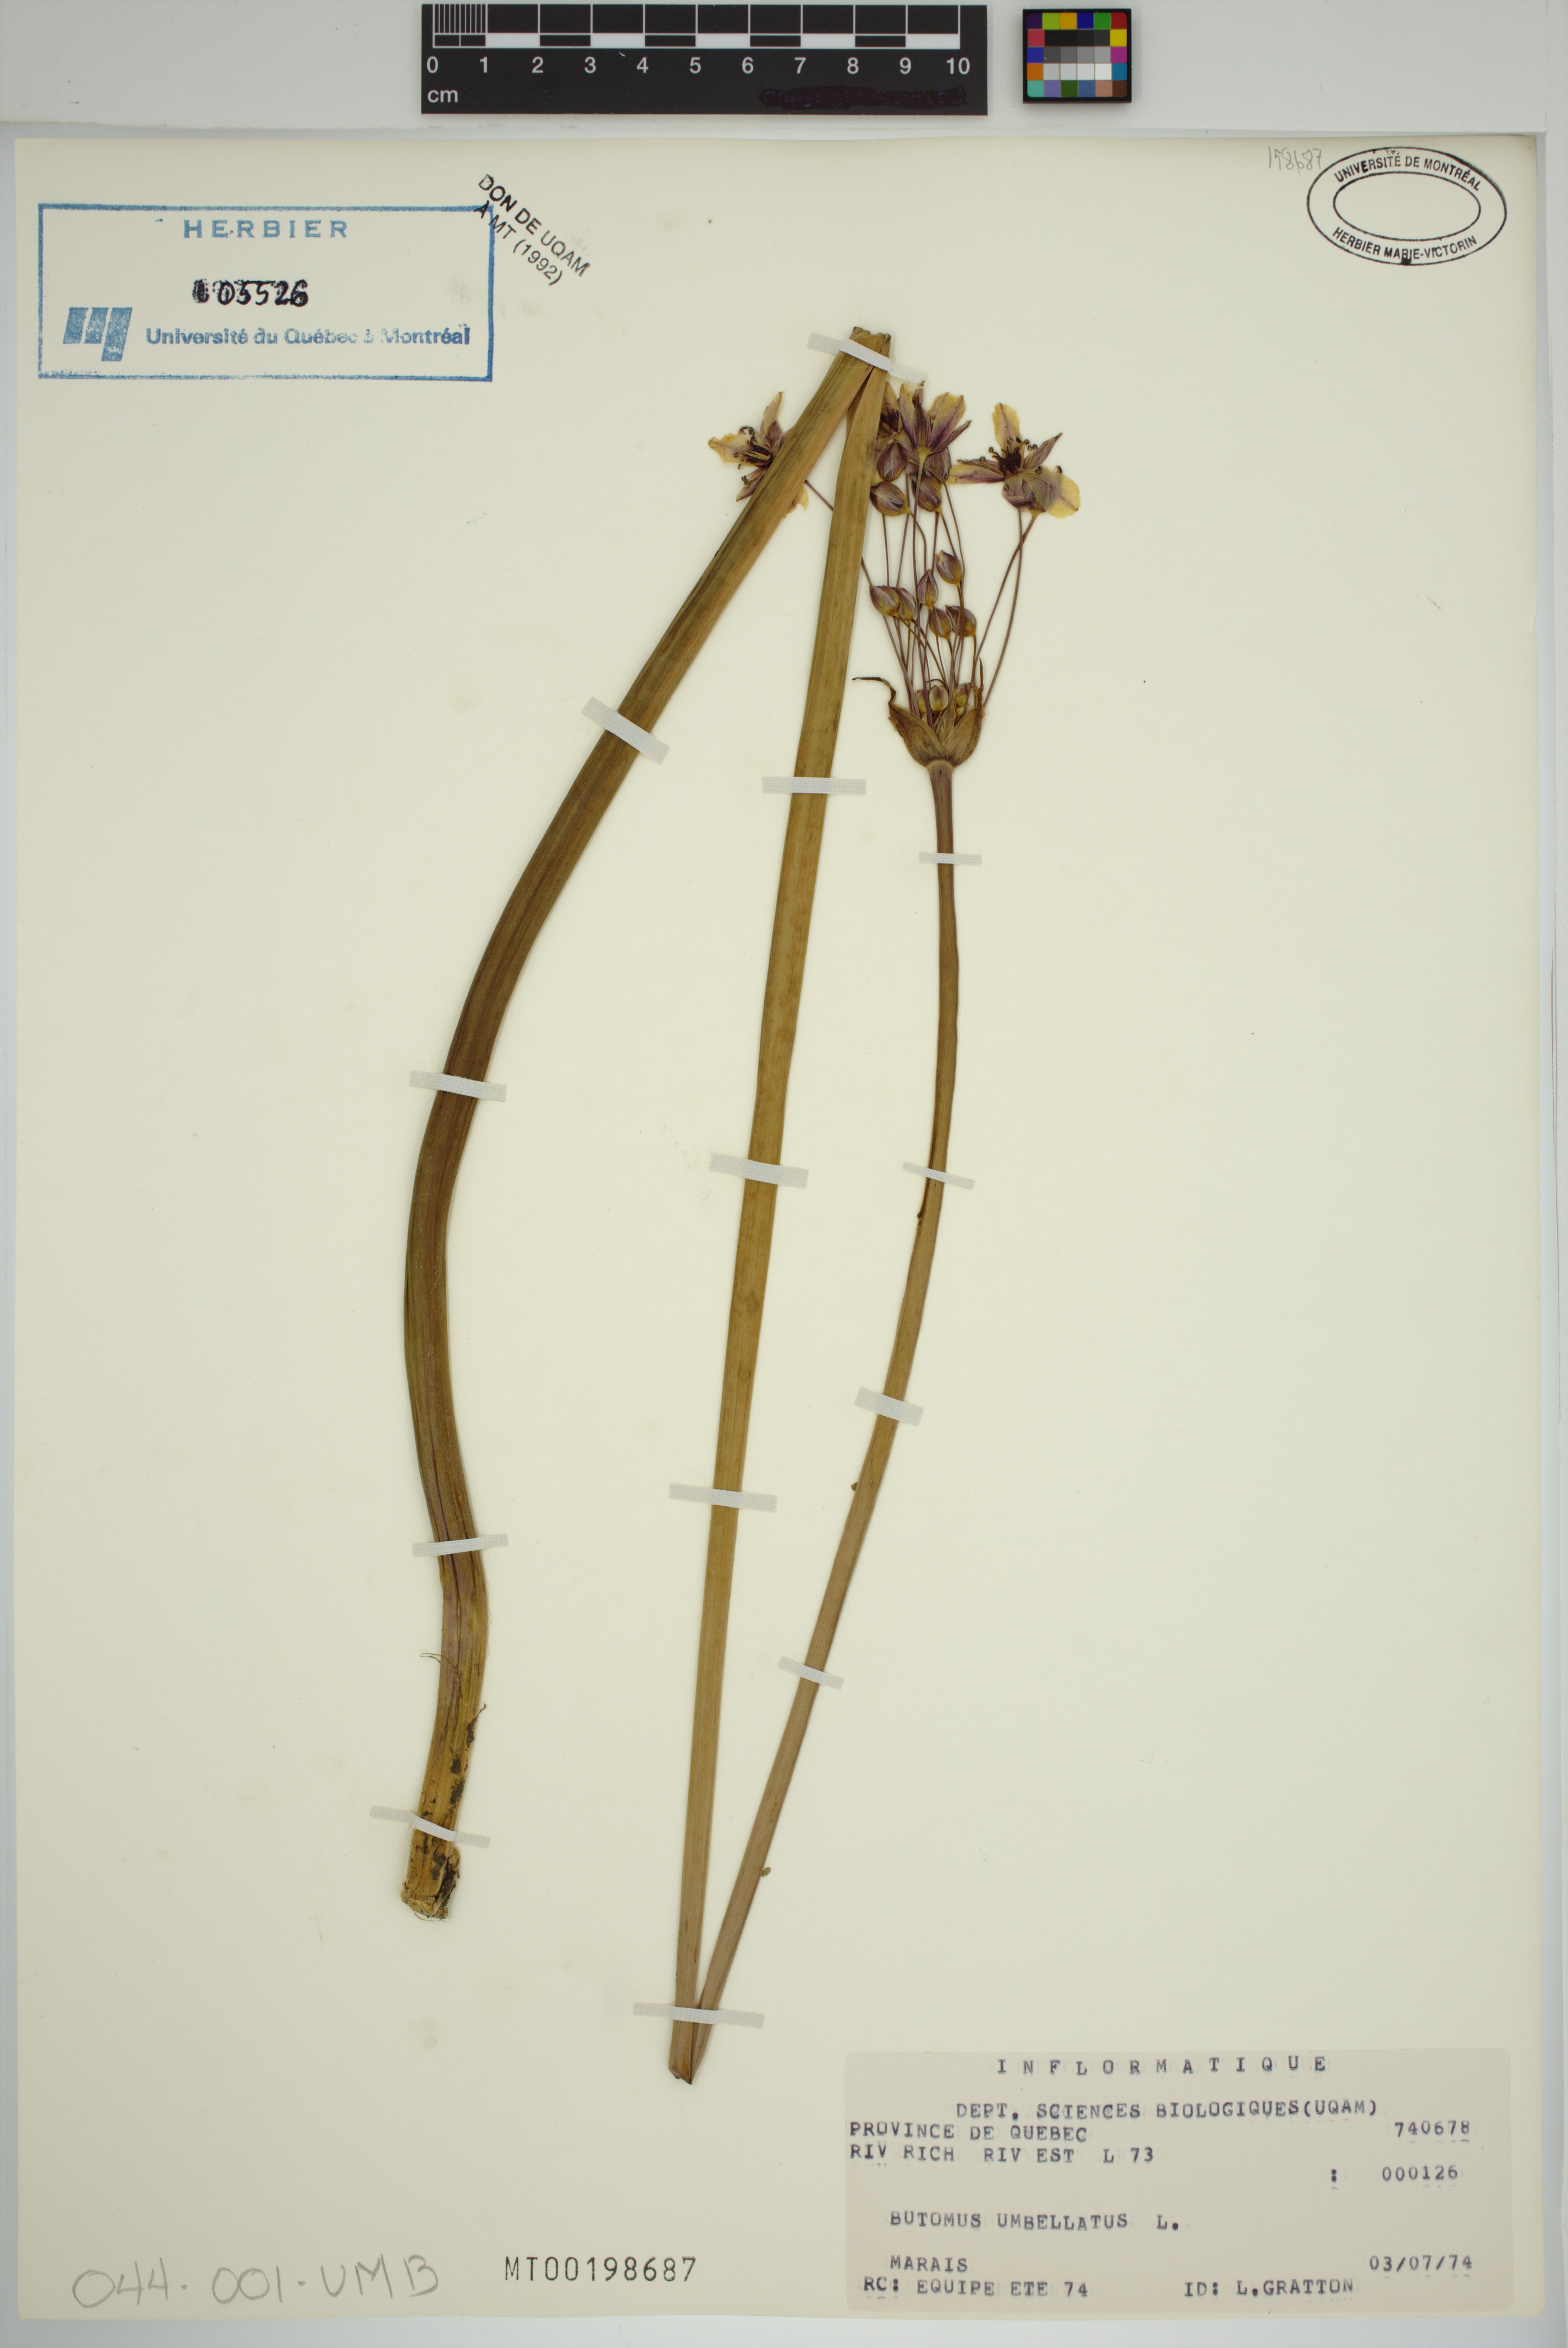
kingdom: Plantae
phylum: Tracheophyta
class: Liliopsida
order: Alismatales
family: Butomaceae
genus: Butomus
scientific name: Butomus umbellatus
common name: Flowering-rush
